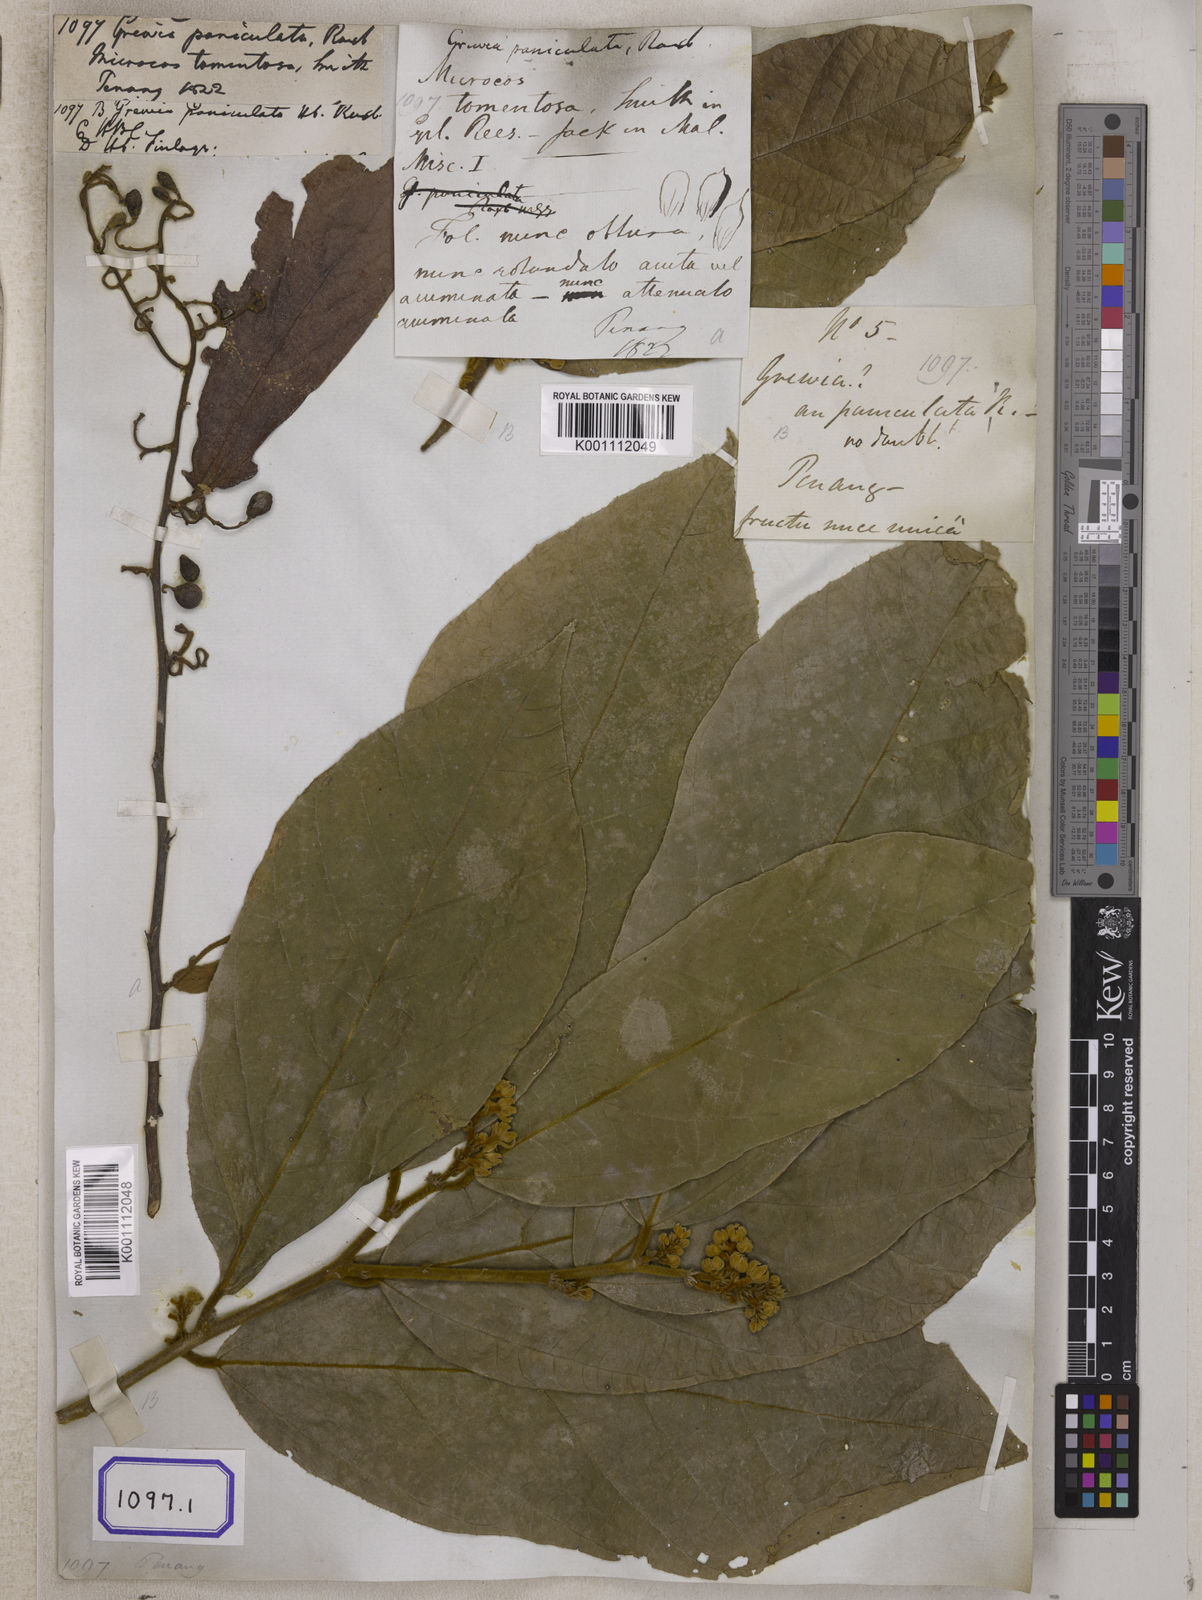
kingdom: Plantae
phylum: Tracheophyta
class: Magnoliopsida
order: Malvales
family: Malvaceae
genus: Grewia
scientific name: Grewia
